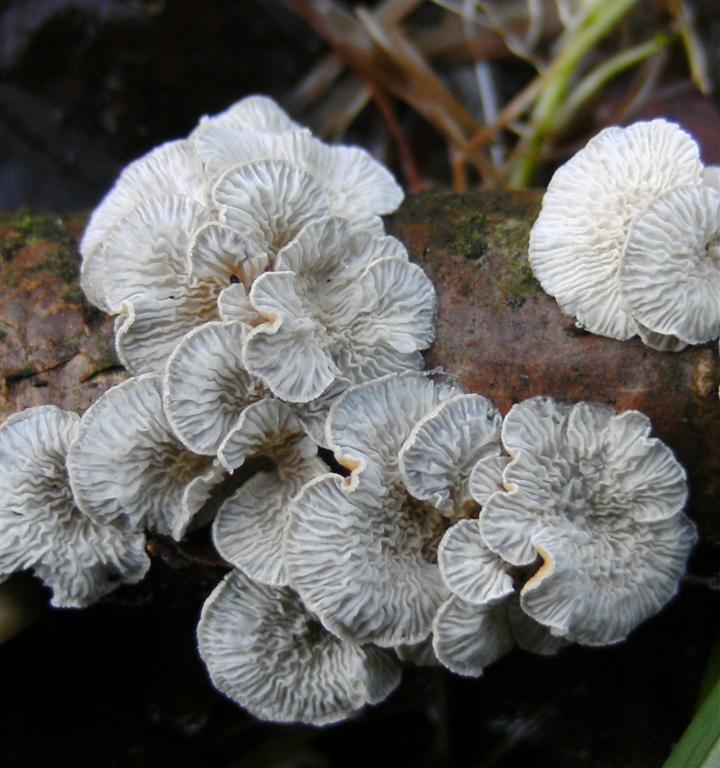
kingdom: Fungi
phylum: Basidiomycota
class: Agaricomycetes
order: Amylocorticiales
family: Amylocorticiaceae
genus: Plicaturopsis
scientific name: Plicaturopsis crispa
